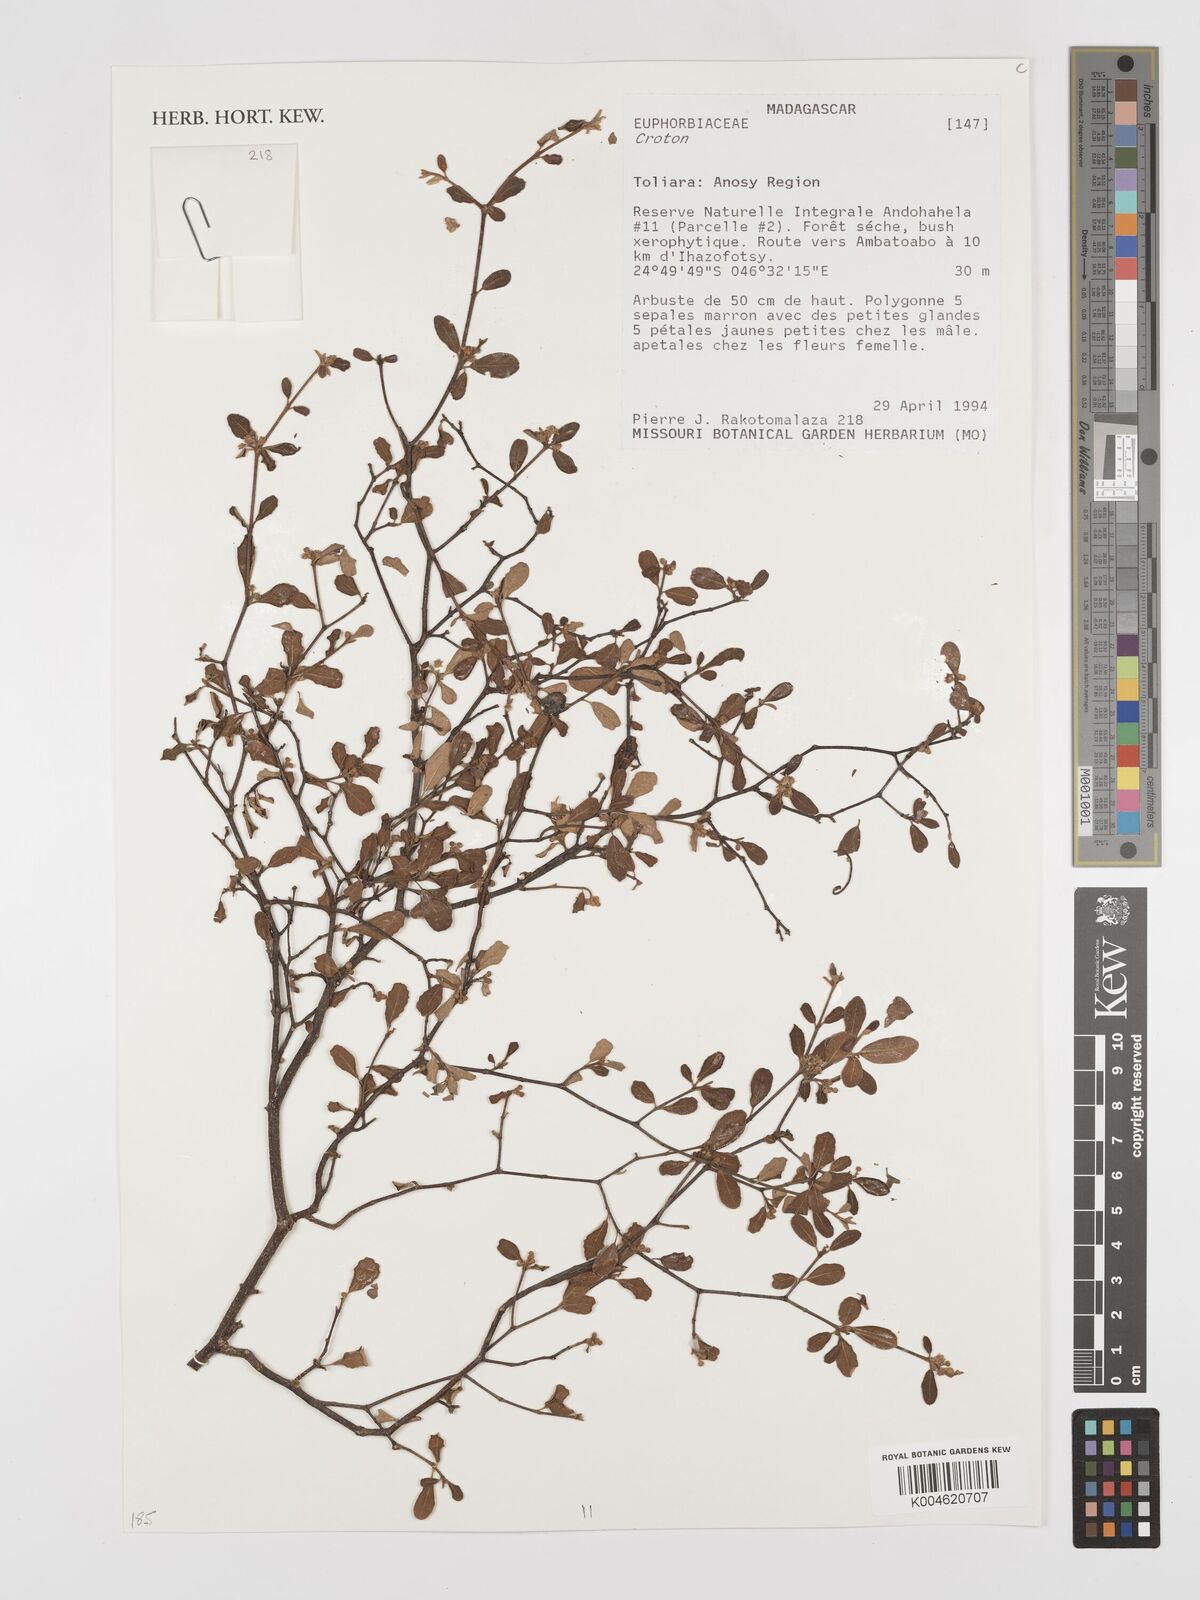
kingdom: Plantae
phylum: Tracheophyta
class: Magnoliopsida
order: Malpighiales
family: Euphorbiaceae
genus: Croton
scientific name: Croton
